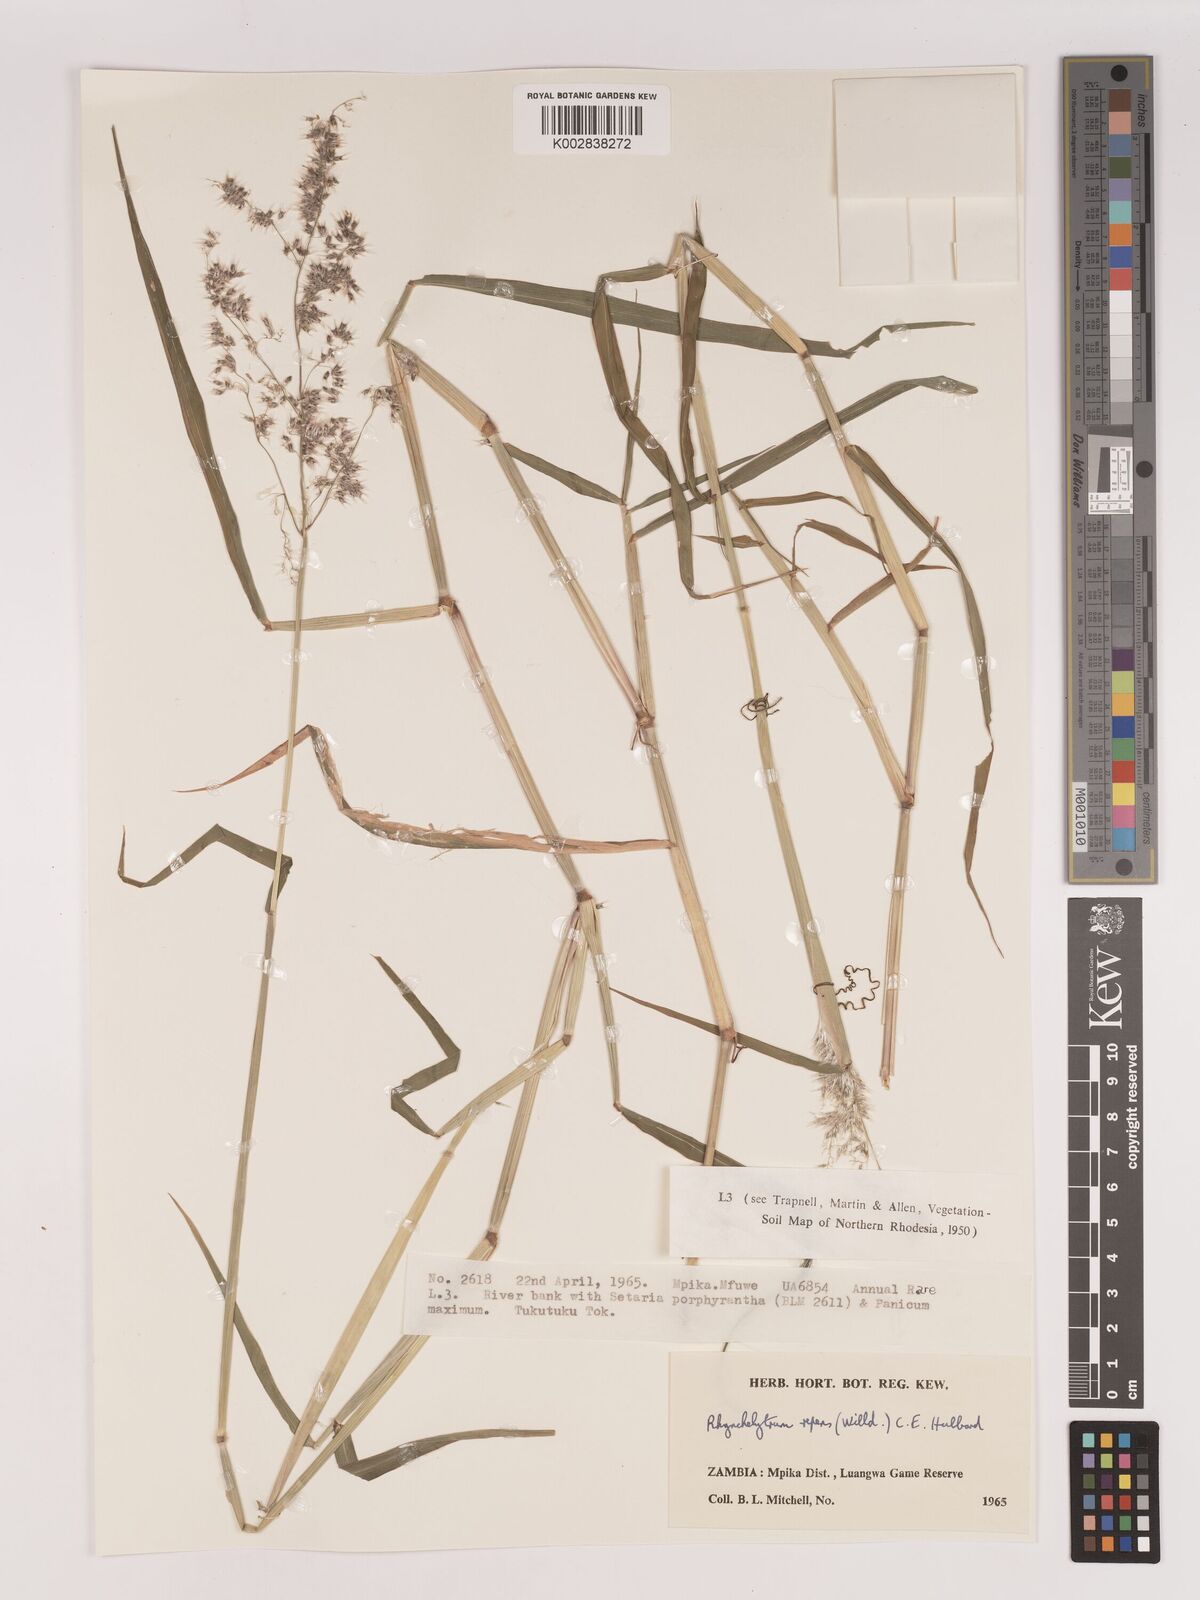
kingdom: Plantae
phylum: Tracheophyta
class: Liliopsida
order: Poales
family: Poaceae
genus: Melinis
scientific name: Melinis repens
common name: Rose natal grass
